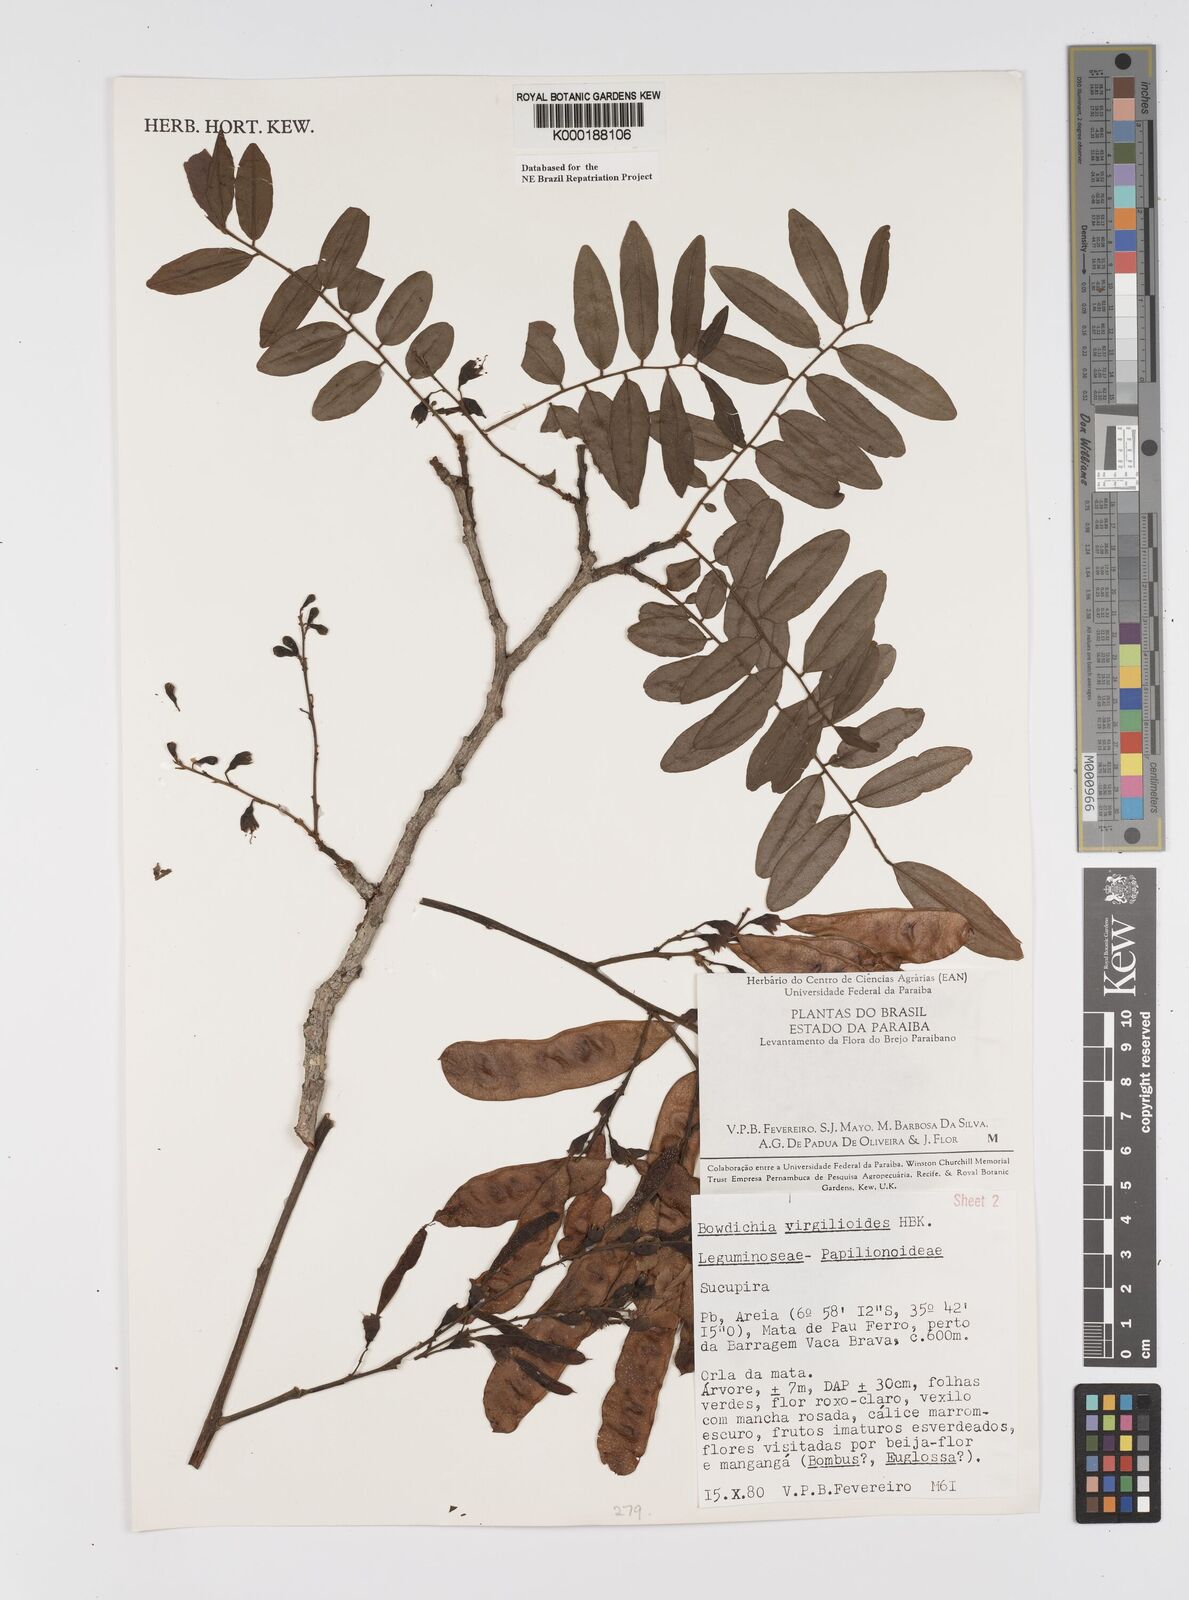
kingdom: Plantae
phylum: Tracheophyta
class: Magnoliopsida
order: Fabales
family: Fabaceae
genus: Bowdichia
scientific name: Bowdichia virgilioides
